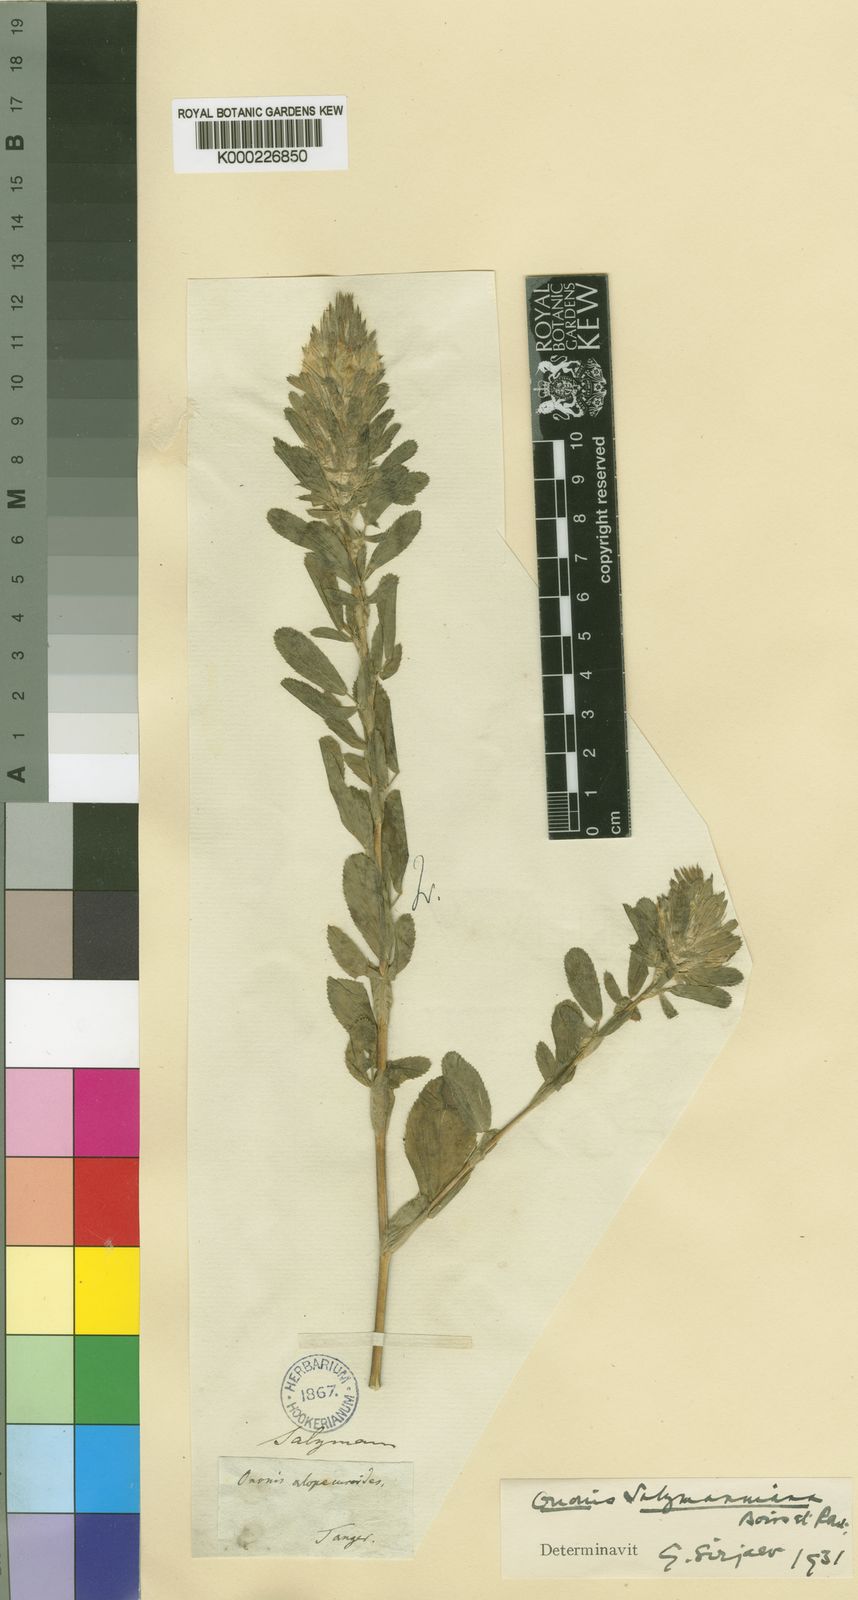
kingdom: Plantae
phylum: Tracheophyta
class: Magnoliopsida
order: Fabales
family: Fabaceae
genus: Ononis
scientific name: Ononis alopecuroides
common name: Salzmann's restharrow
